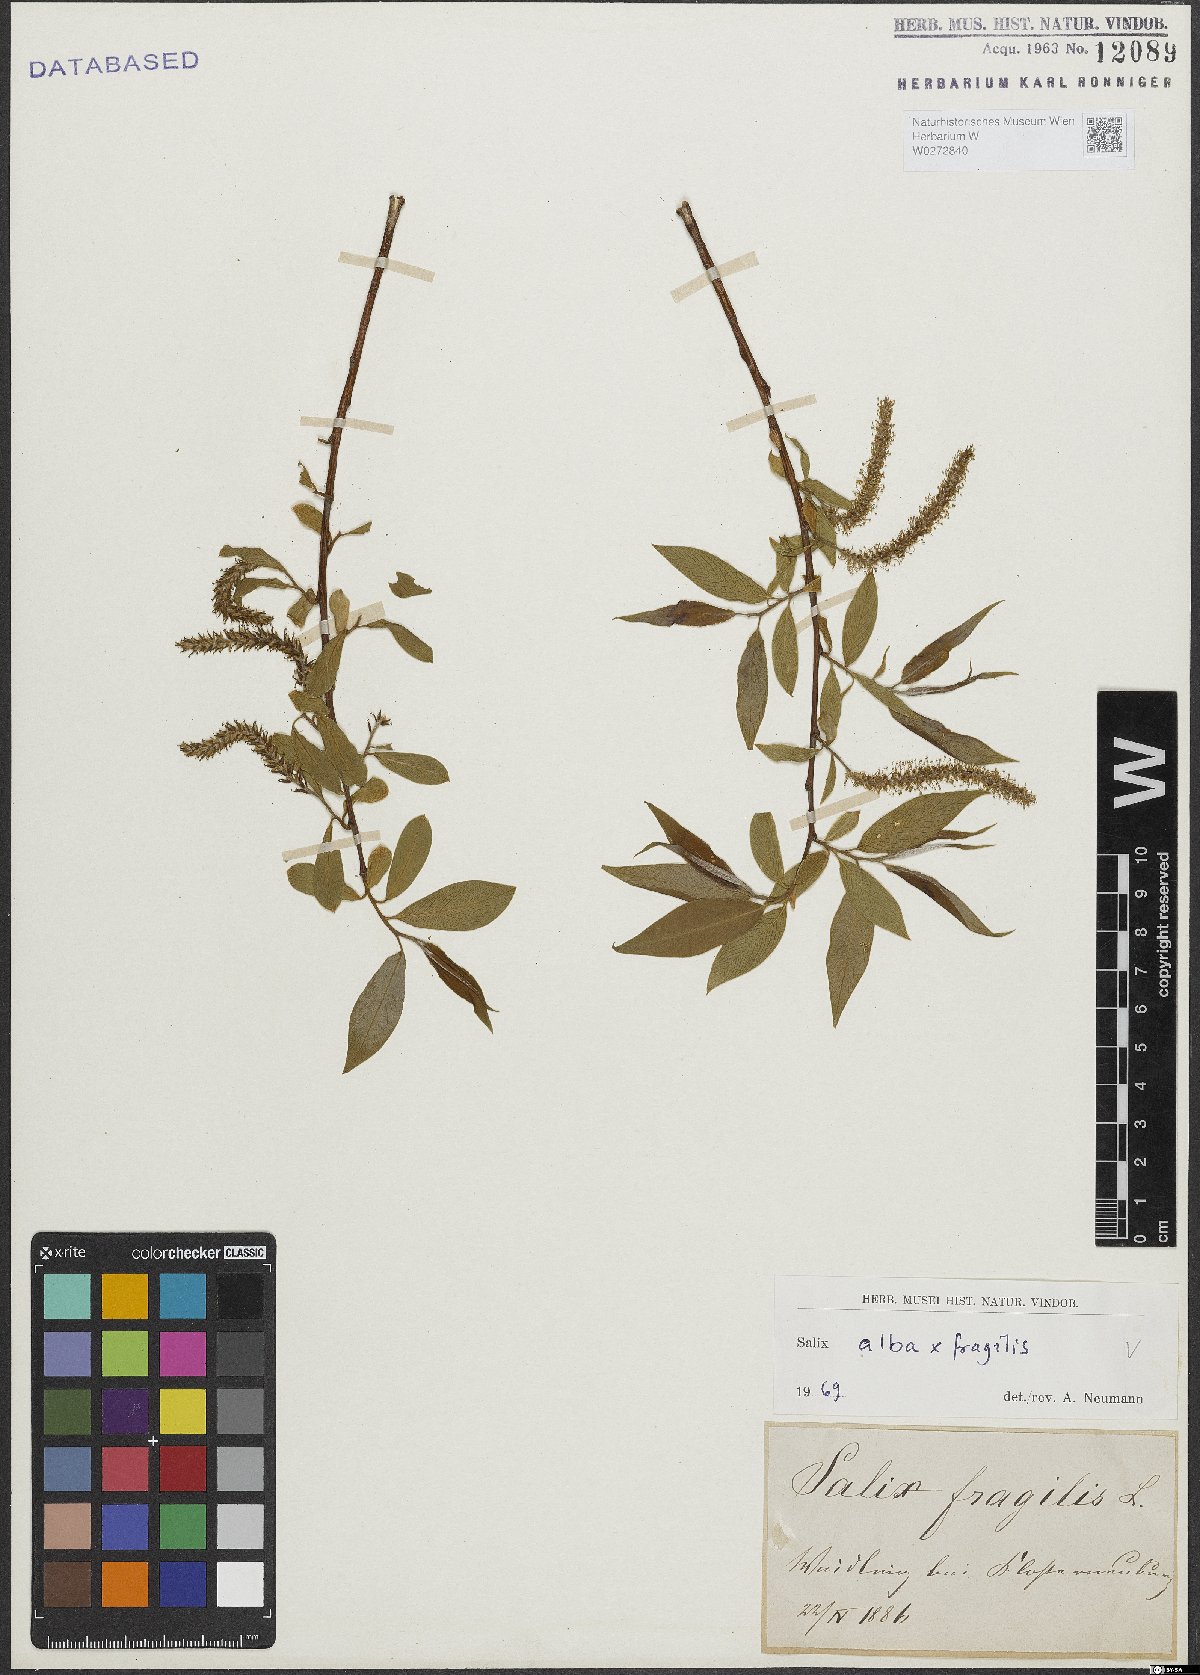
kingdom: Plantae
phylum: Tracheophyta
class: Magnoliopsida
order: Malpighiales
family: Salicaceae
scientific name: Salicaceae
